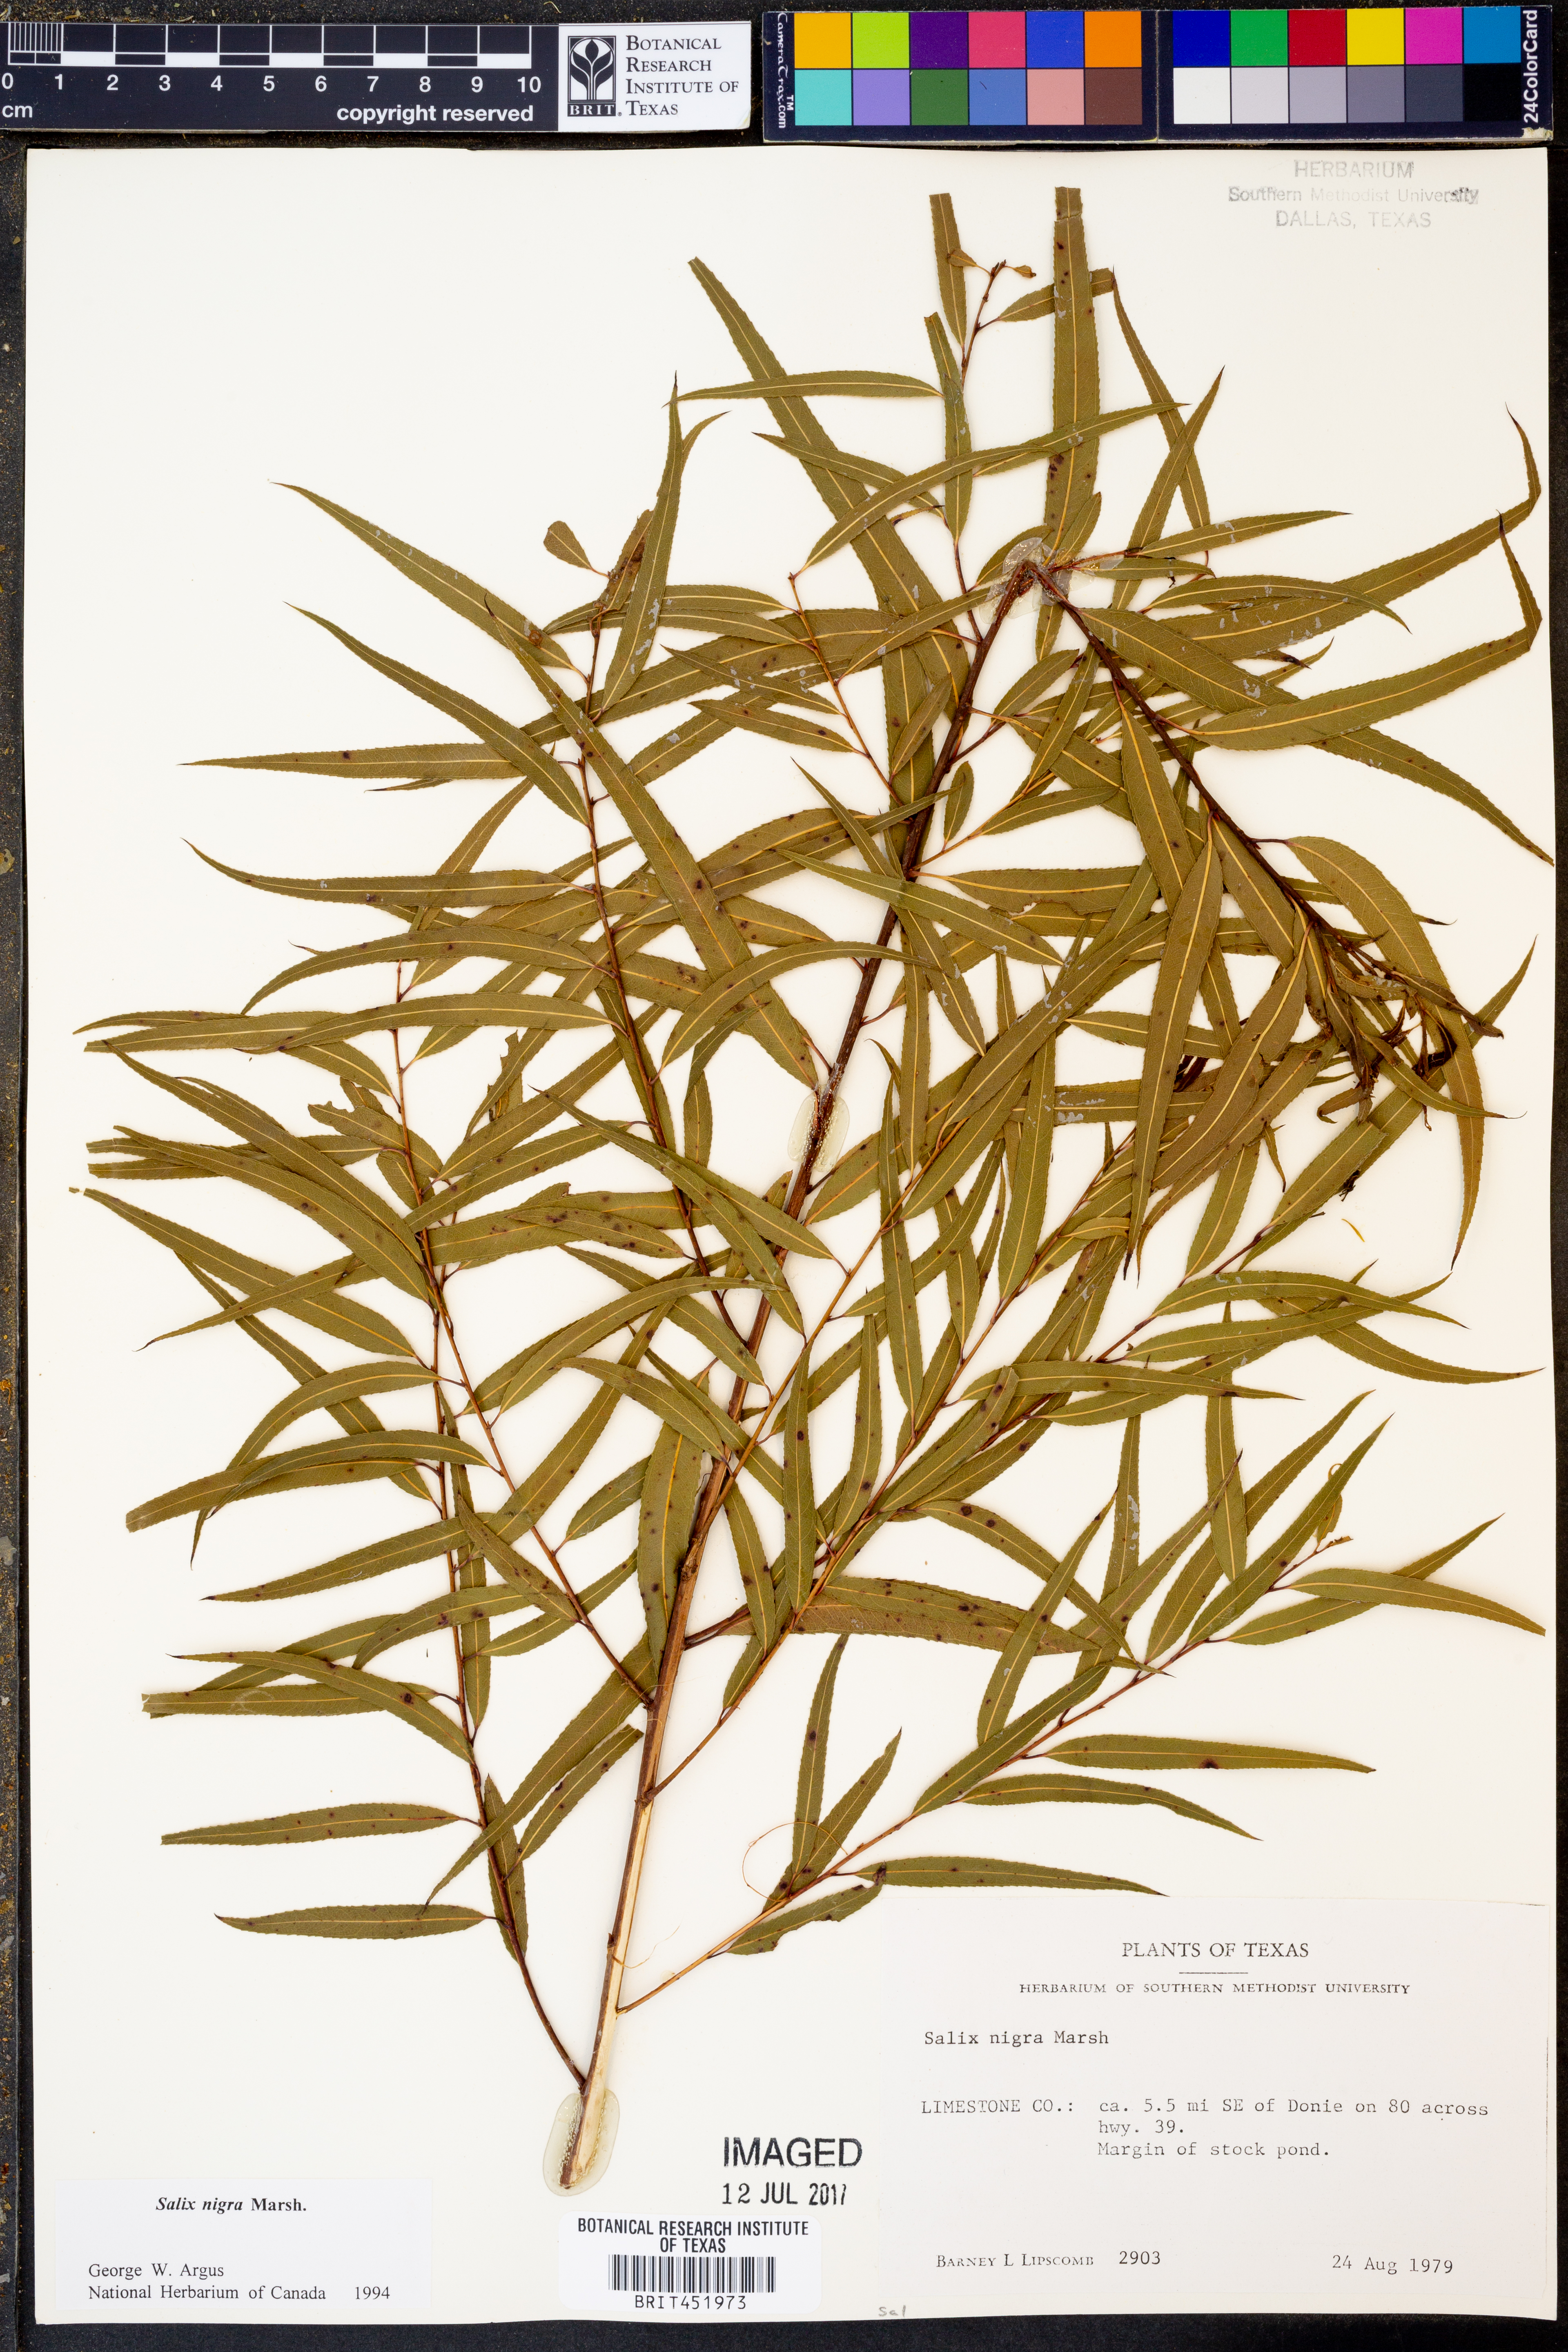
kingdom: Plantae
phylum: Tracheophyta
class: Magnoliopsida
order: Malpighiales
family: Salicaceae
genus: Salix
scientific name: Salix nigra
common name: Black willow
